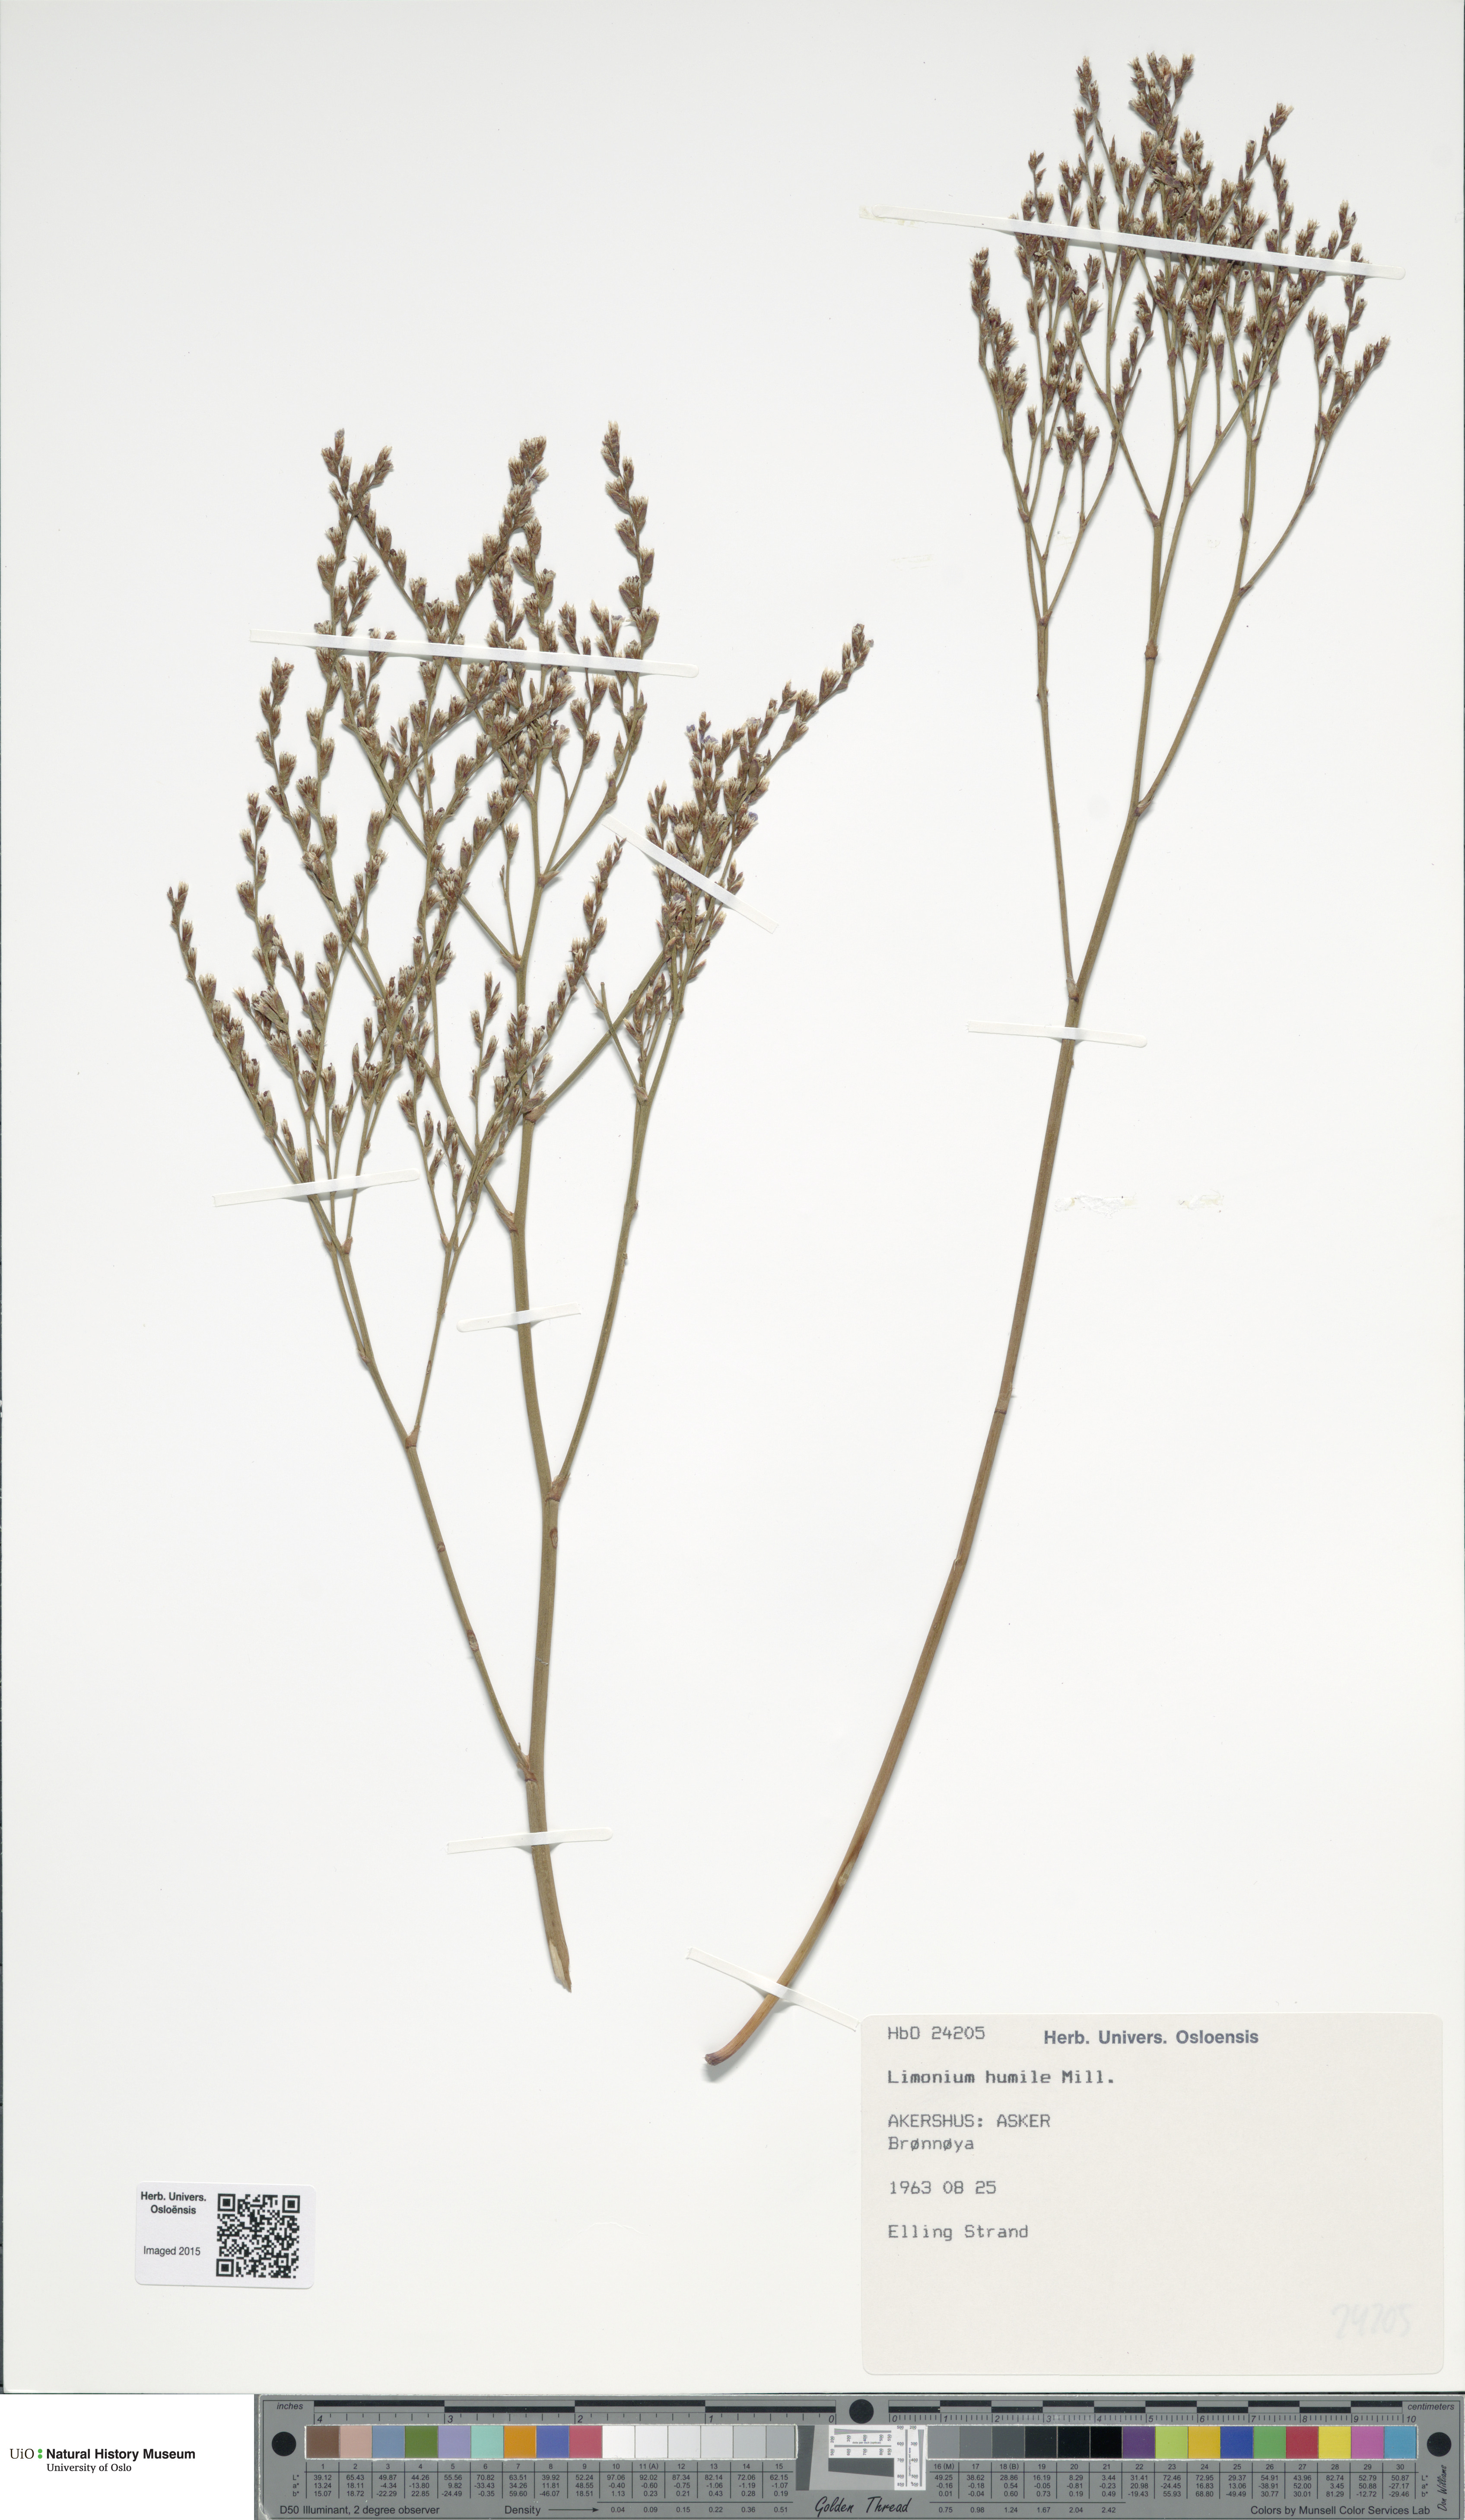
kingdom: Plantae
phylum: Tracheophyta
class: Magnoliopsida
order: Caryophyllales
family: Plumbaginaceae
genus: Limonium
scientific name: Limonium humile
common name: Lax-flowered sea-lavender
